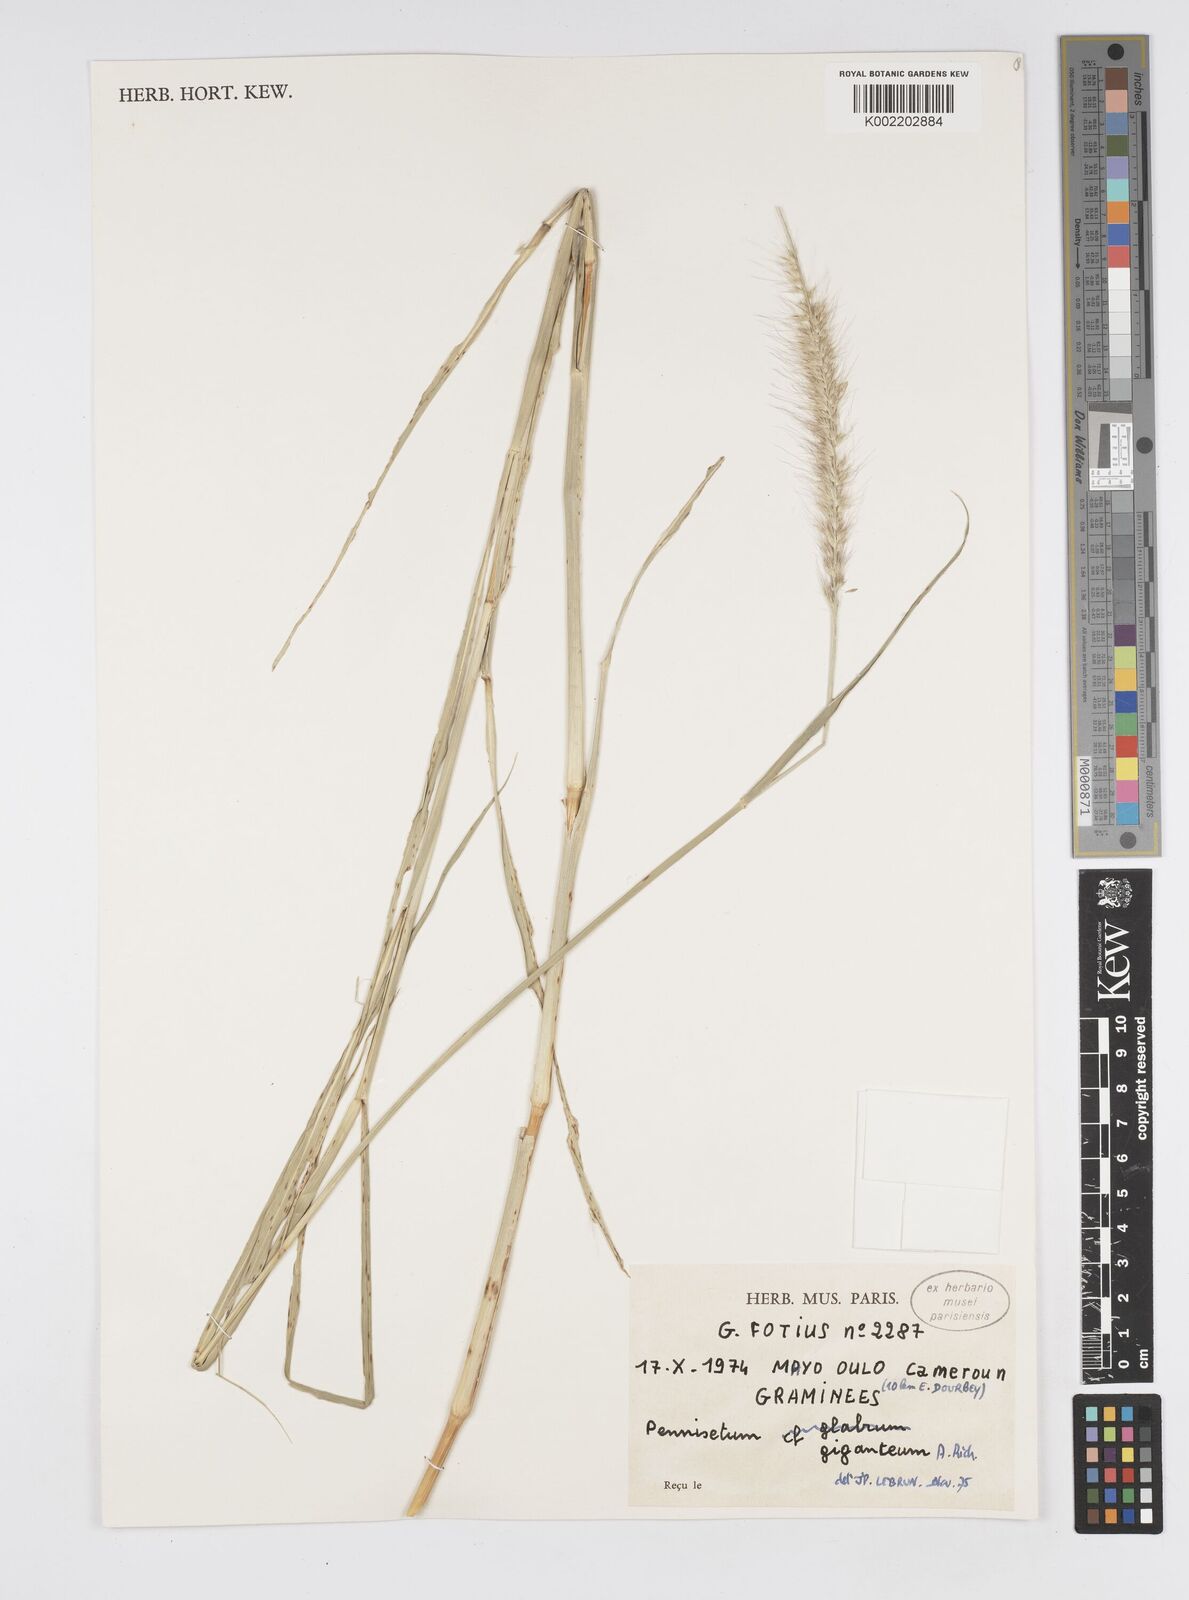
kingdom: Plantae
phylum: Tracheophyta
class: Liliopsida
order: Poales
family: Poaceae
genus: Cenchrus
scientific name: Cenchrus caudatus
